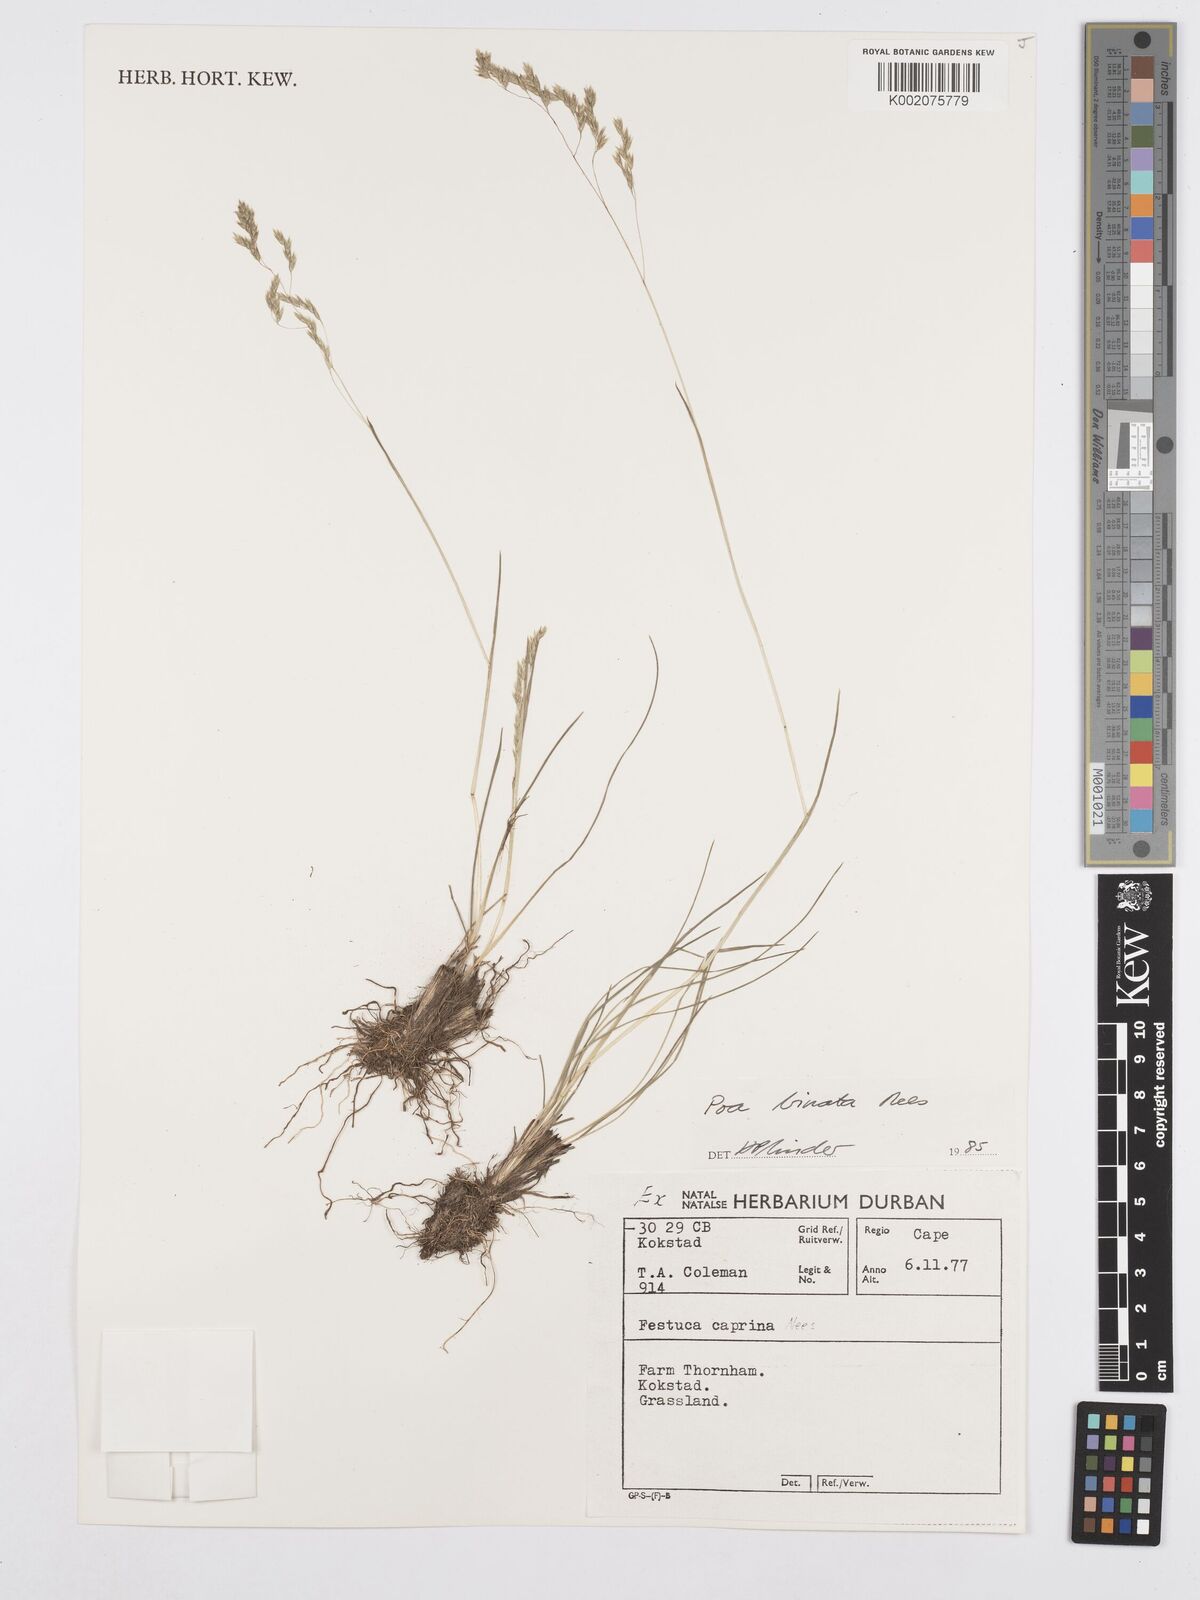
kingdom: Plantae
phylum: Tracheophyta
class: Liliopsida
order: Poales
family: Poaceae
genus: Poa
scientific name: Poa binata
